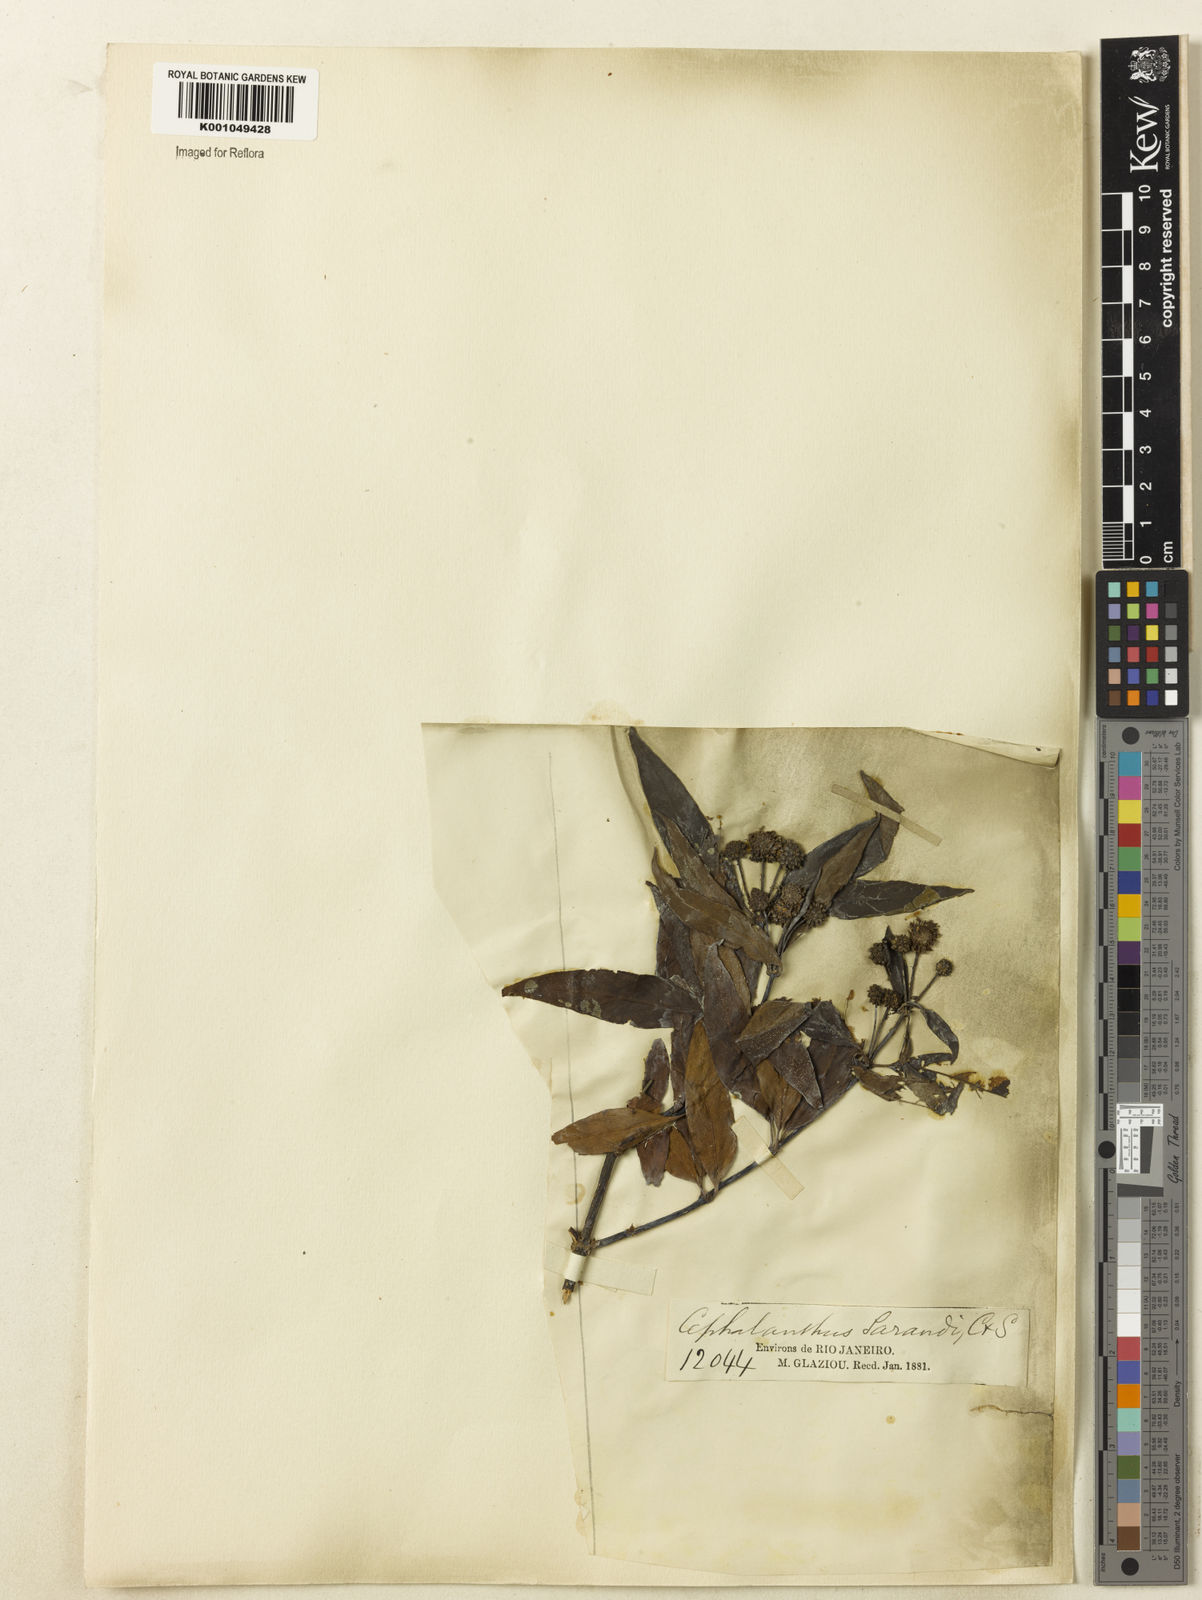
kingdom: Plantae
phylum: Tracheophyta
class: Magnoliopsida
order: Gentianales
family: Rubiaceae
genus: Cephalanthus
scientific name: Cephalanthus glabratus
